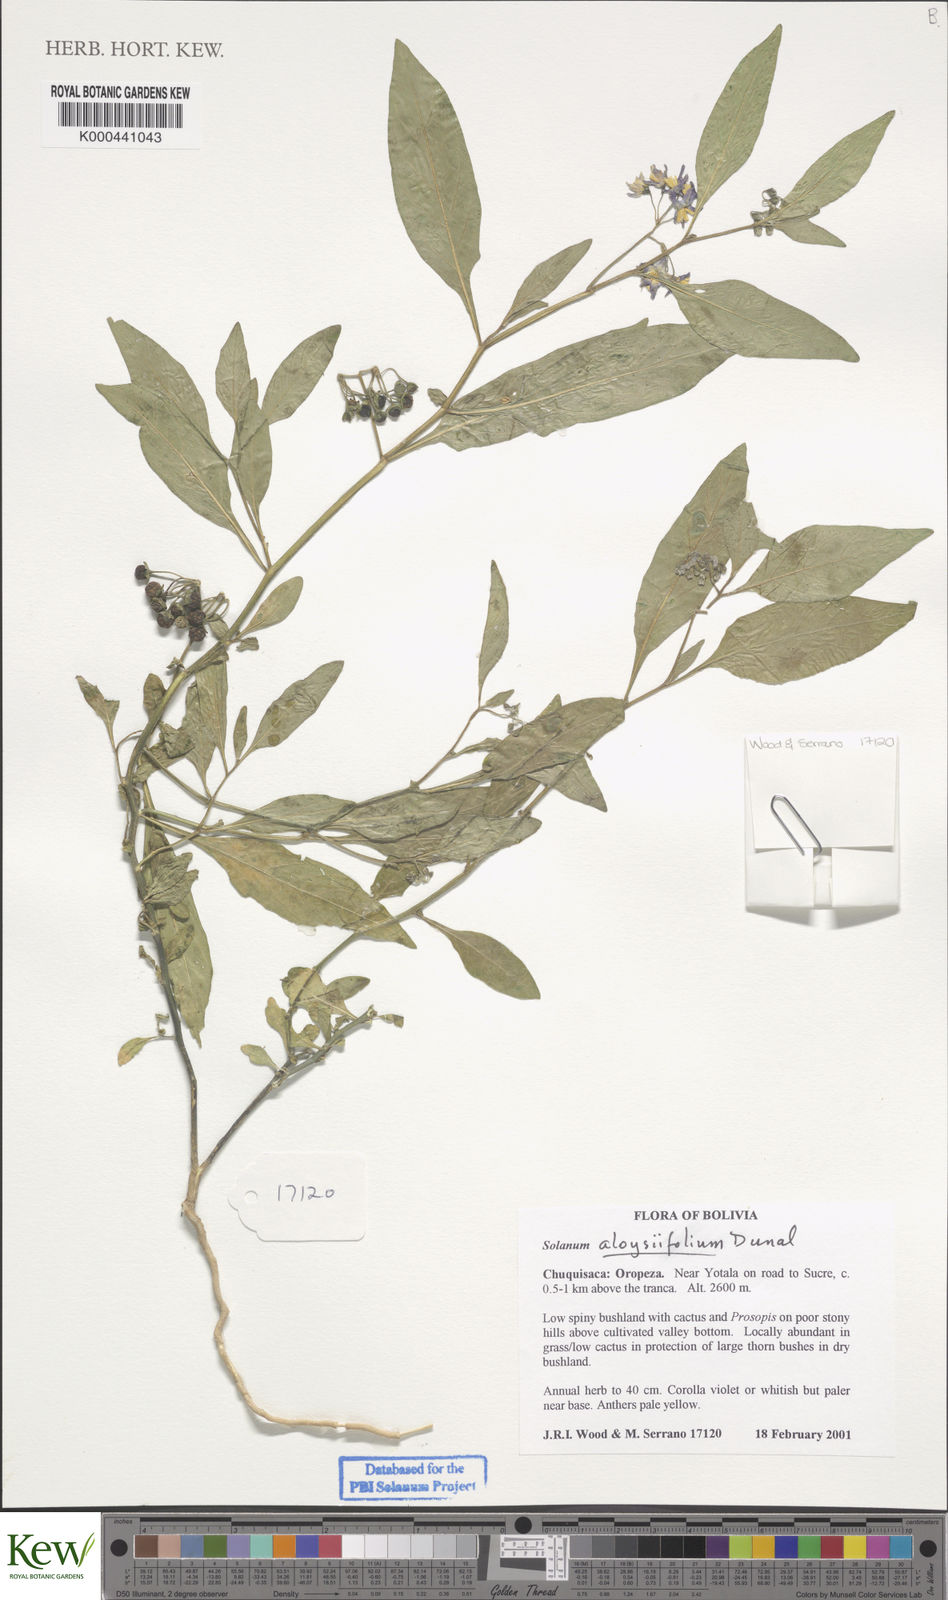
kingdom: Plantae
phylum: Tracheophyta
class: Magnoliopsida
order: Solanales
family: Solanaceae
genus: Solanum
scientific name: Solanum aloysiifolium
